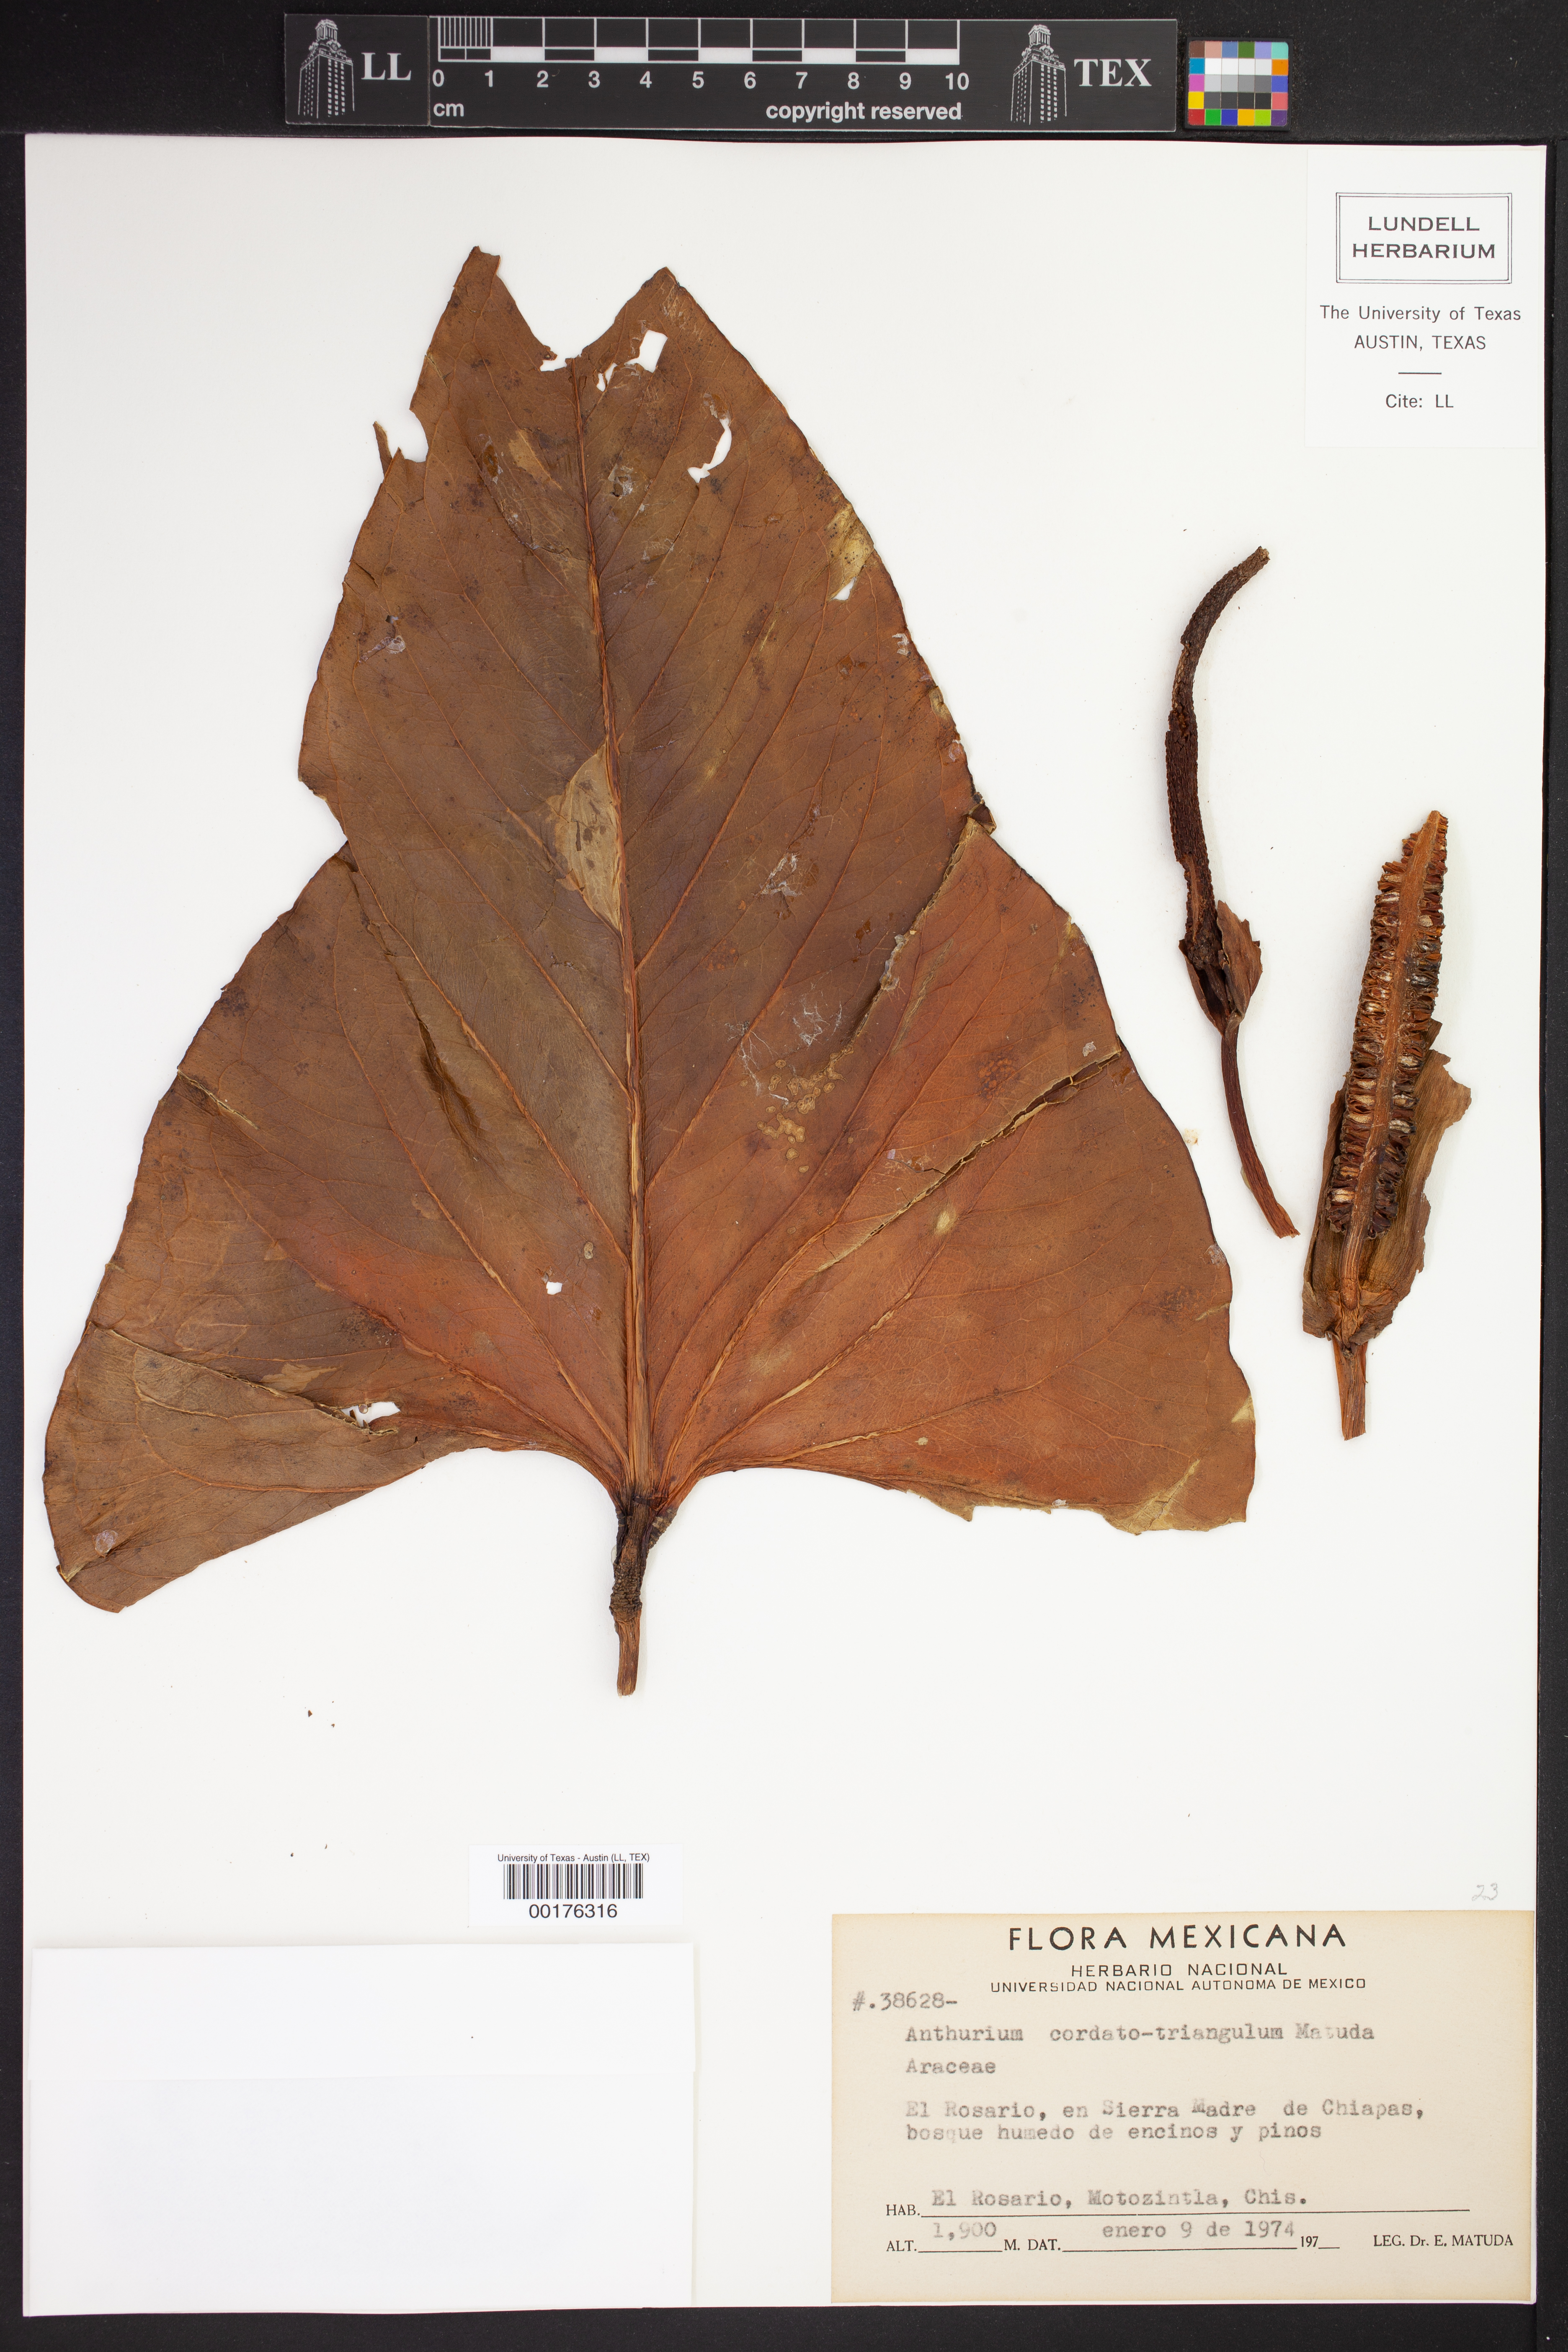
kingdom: Plantae
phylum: Tracheophyta
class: Liliopsida
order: Alismatales
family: Araceae
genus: Anthurium
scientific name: Anthurium cordatotriangulum
